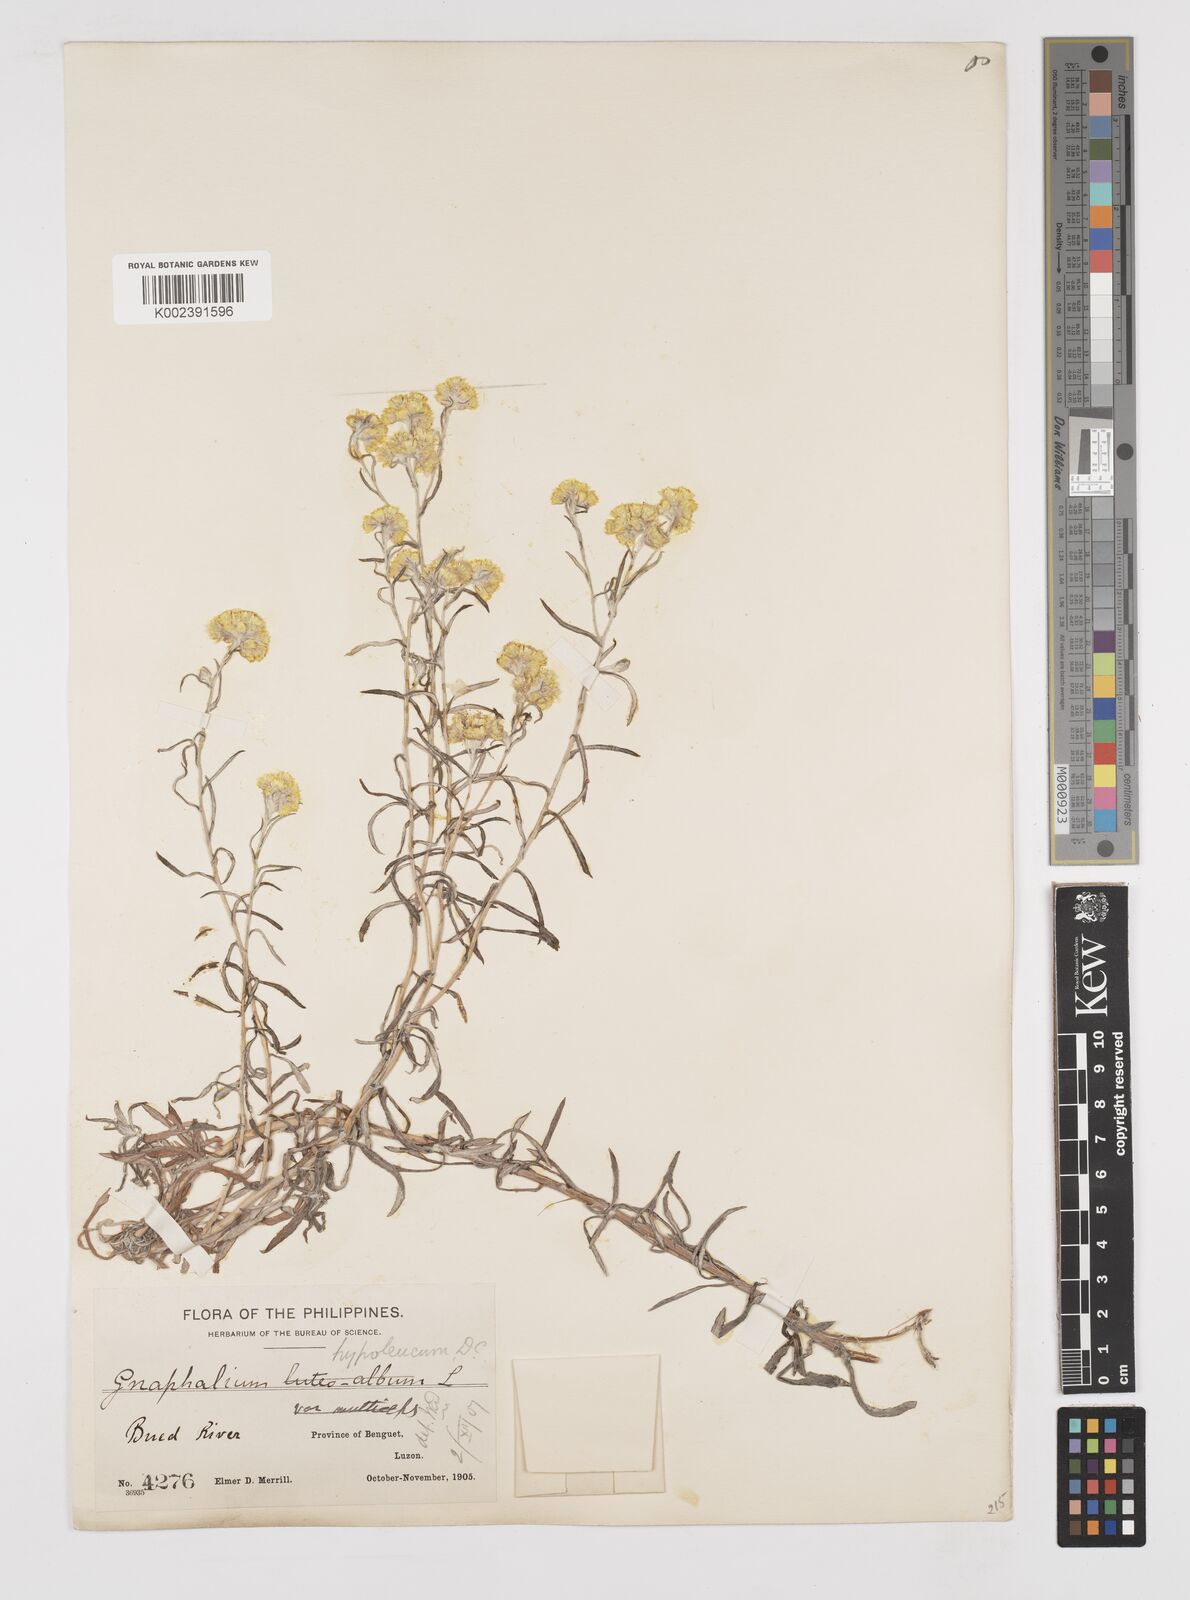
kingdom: Plantae
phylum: Tracheophyta
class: Magnoliopsida
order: Asterales
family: Asteraceae
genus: Pseudognaphalium
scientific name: Pseudognaphalium hypoleucum
